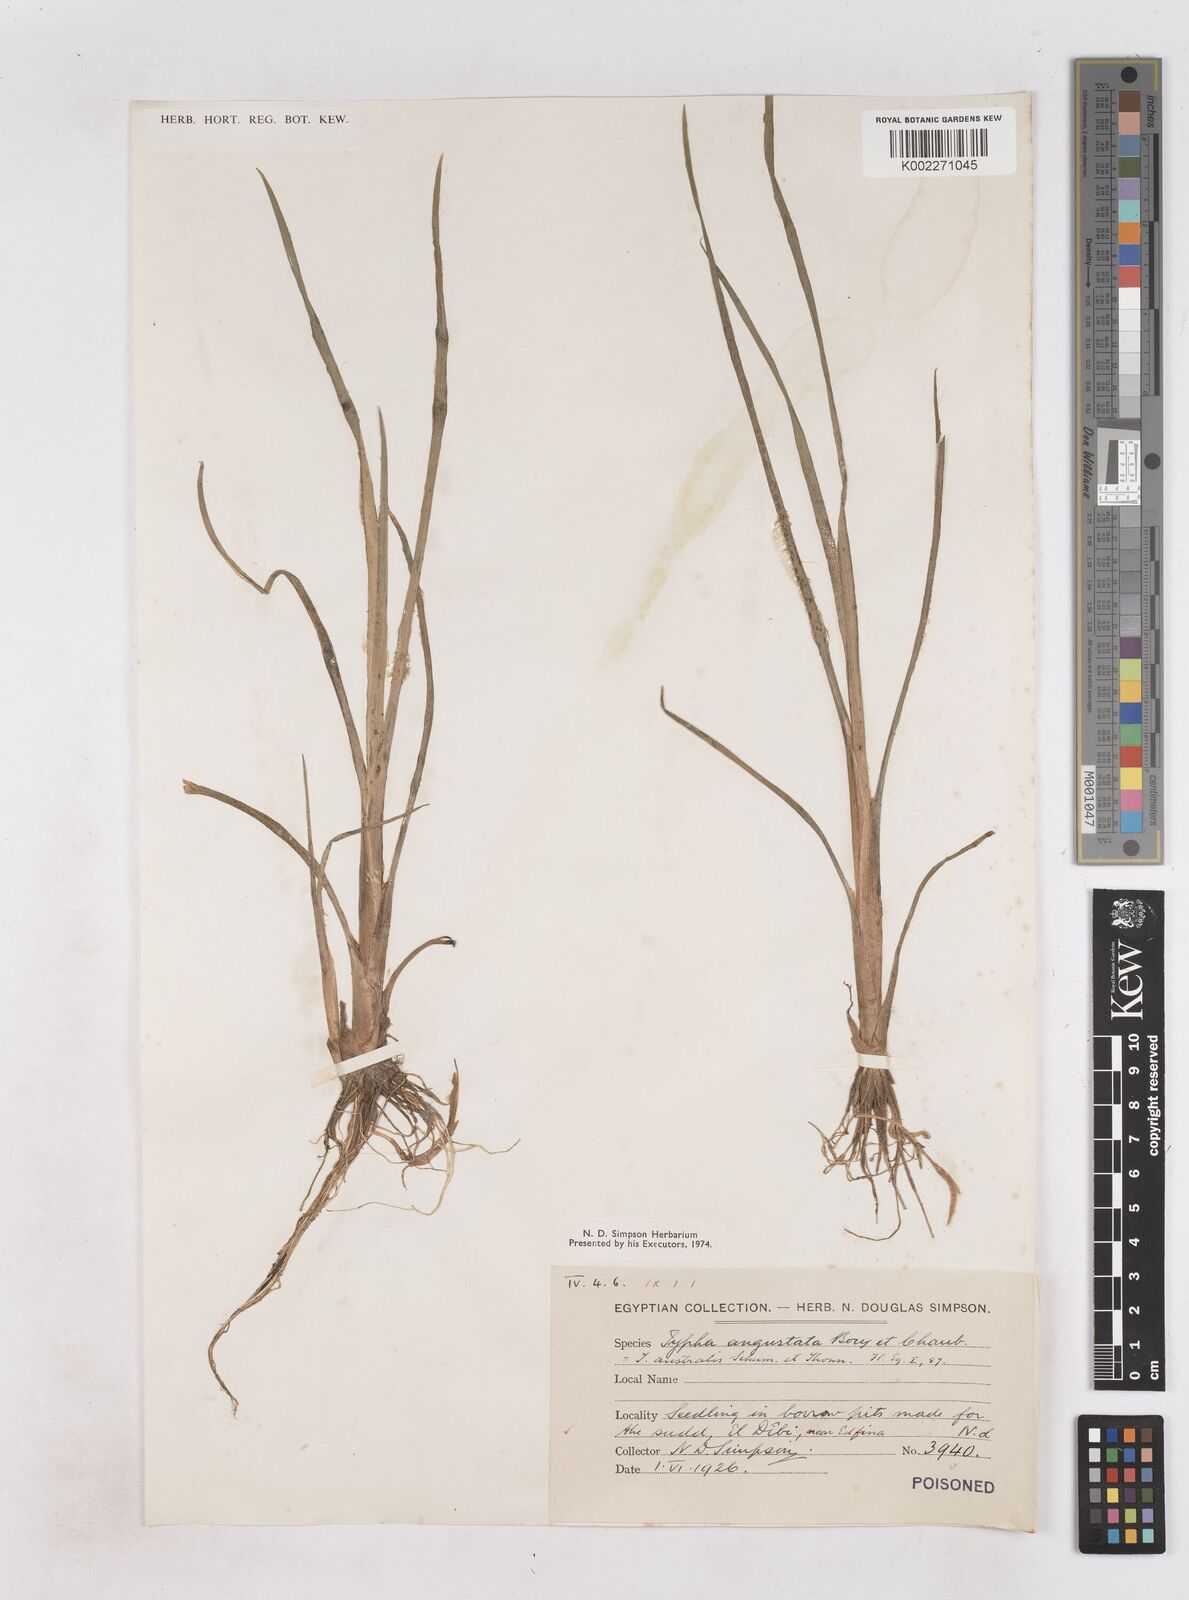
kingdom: Plantae
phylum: Tracheophyta
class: Liliopsida
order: Poales
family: Typhaceae
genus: Typha
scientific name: Typha domingensis
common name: Southern cattail
